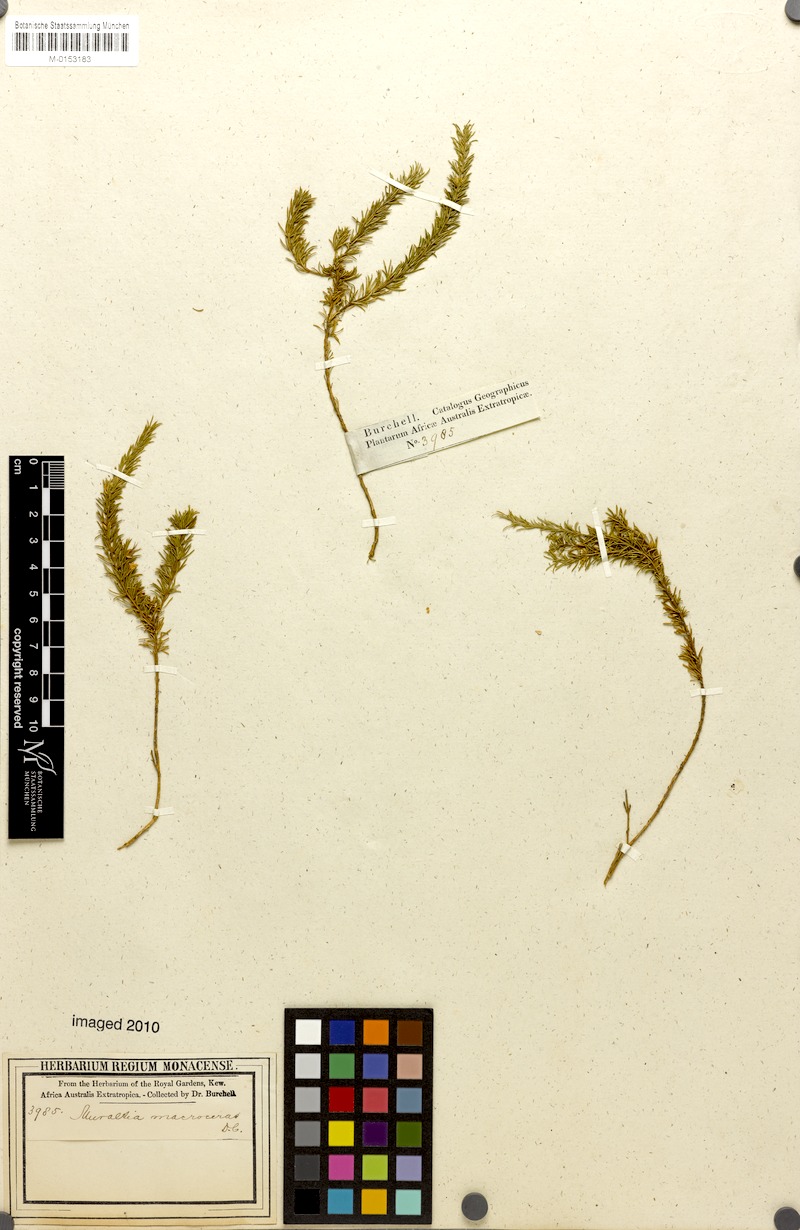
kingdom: Plantae
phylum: Tracheophyta
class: Magnoliopsida
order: Fabales
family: Polygalaceae
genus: Muraltia
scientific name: Muraltia macroceras
